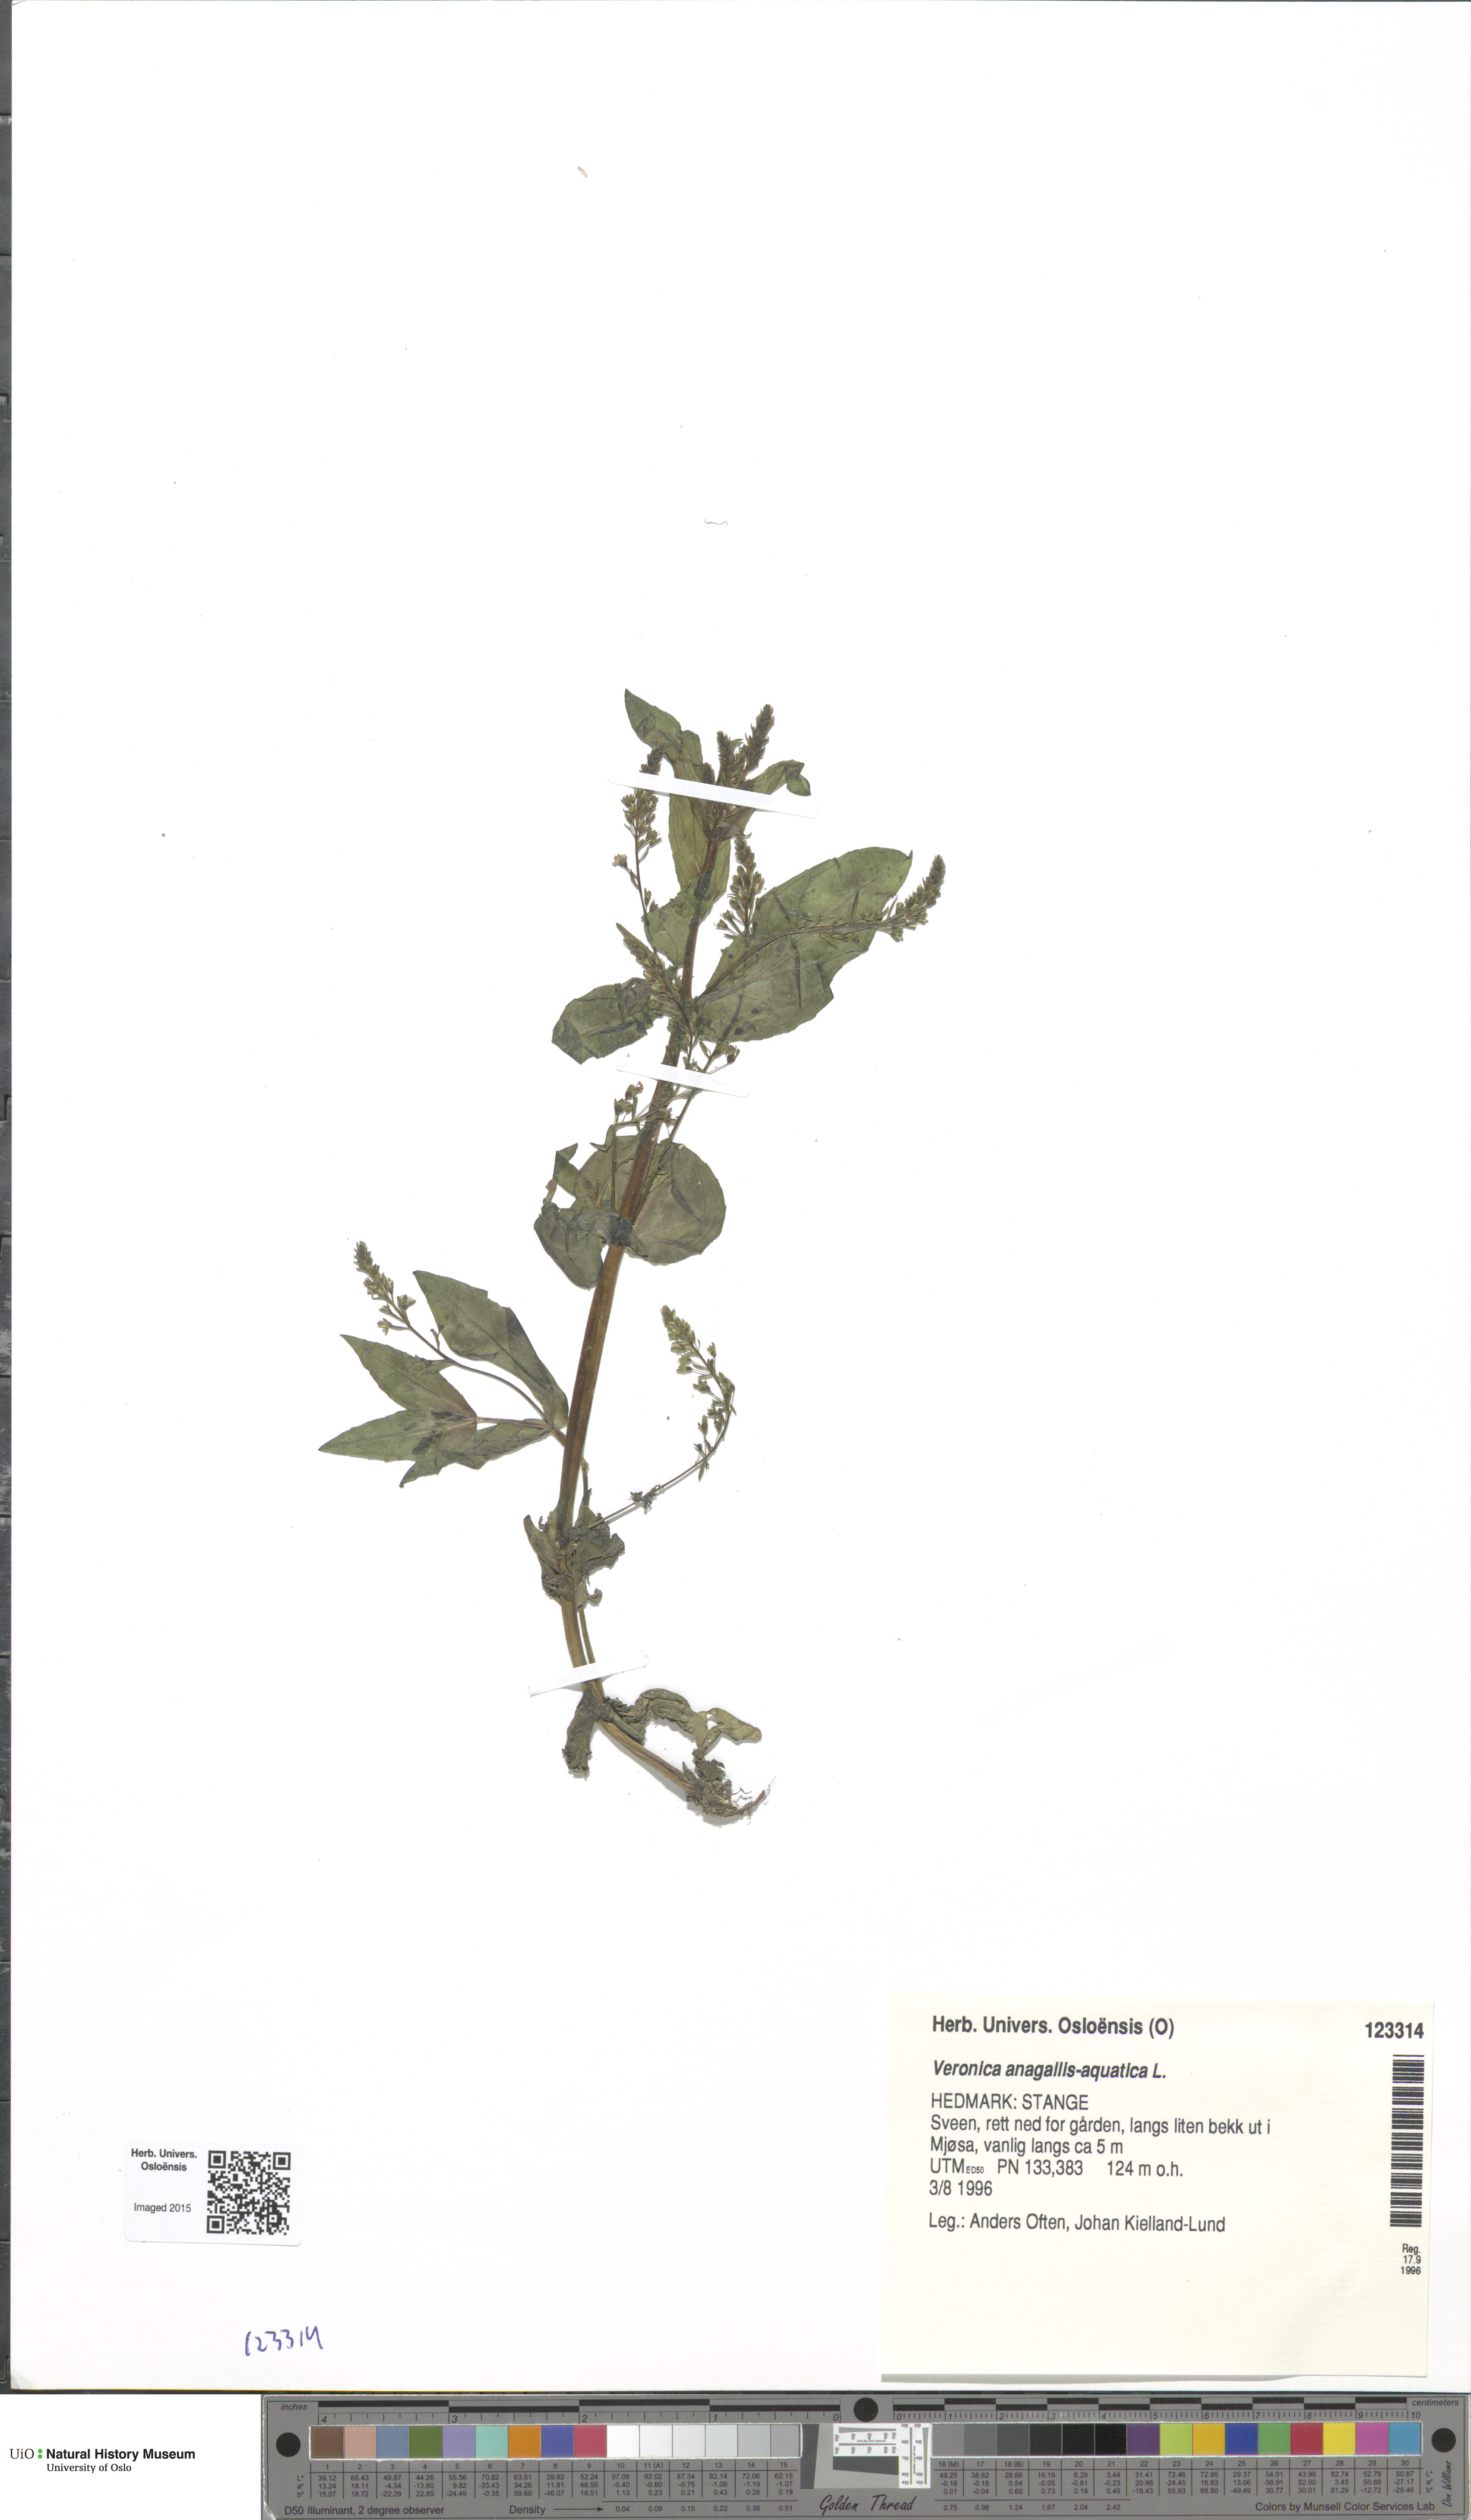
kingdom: Plantae
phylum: Tracheophyta
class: Magnoliopsida
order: Lamiales
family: Plantaginaceae
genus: Veronica
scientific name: Veronica anagallis-aquatica
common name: Water speedwell
